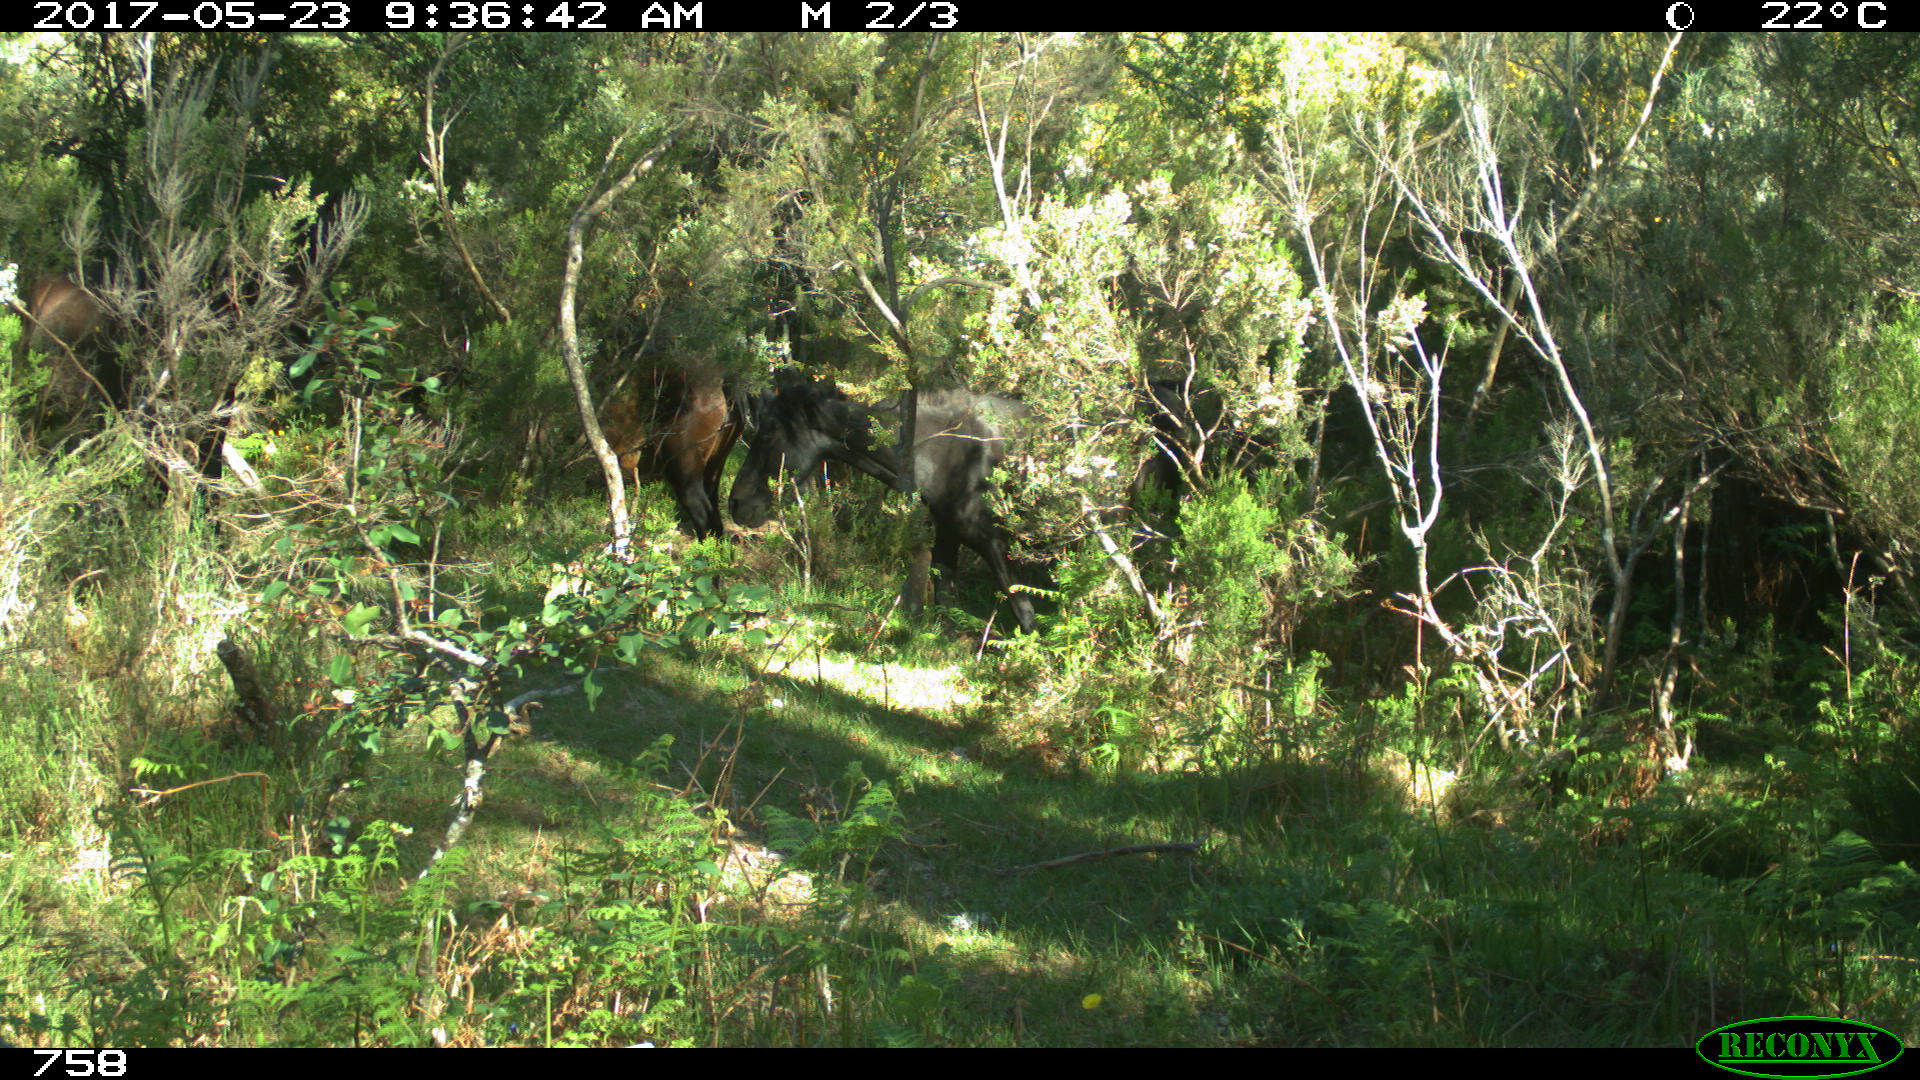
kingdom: Animalia
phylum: Chordata
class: Mammalia
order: Perissodactyla
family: Equidae
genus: Equus
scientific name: Equus caballus
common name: Horse
